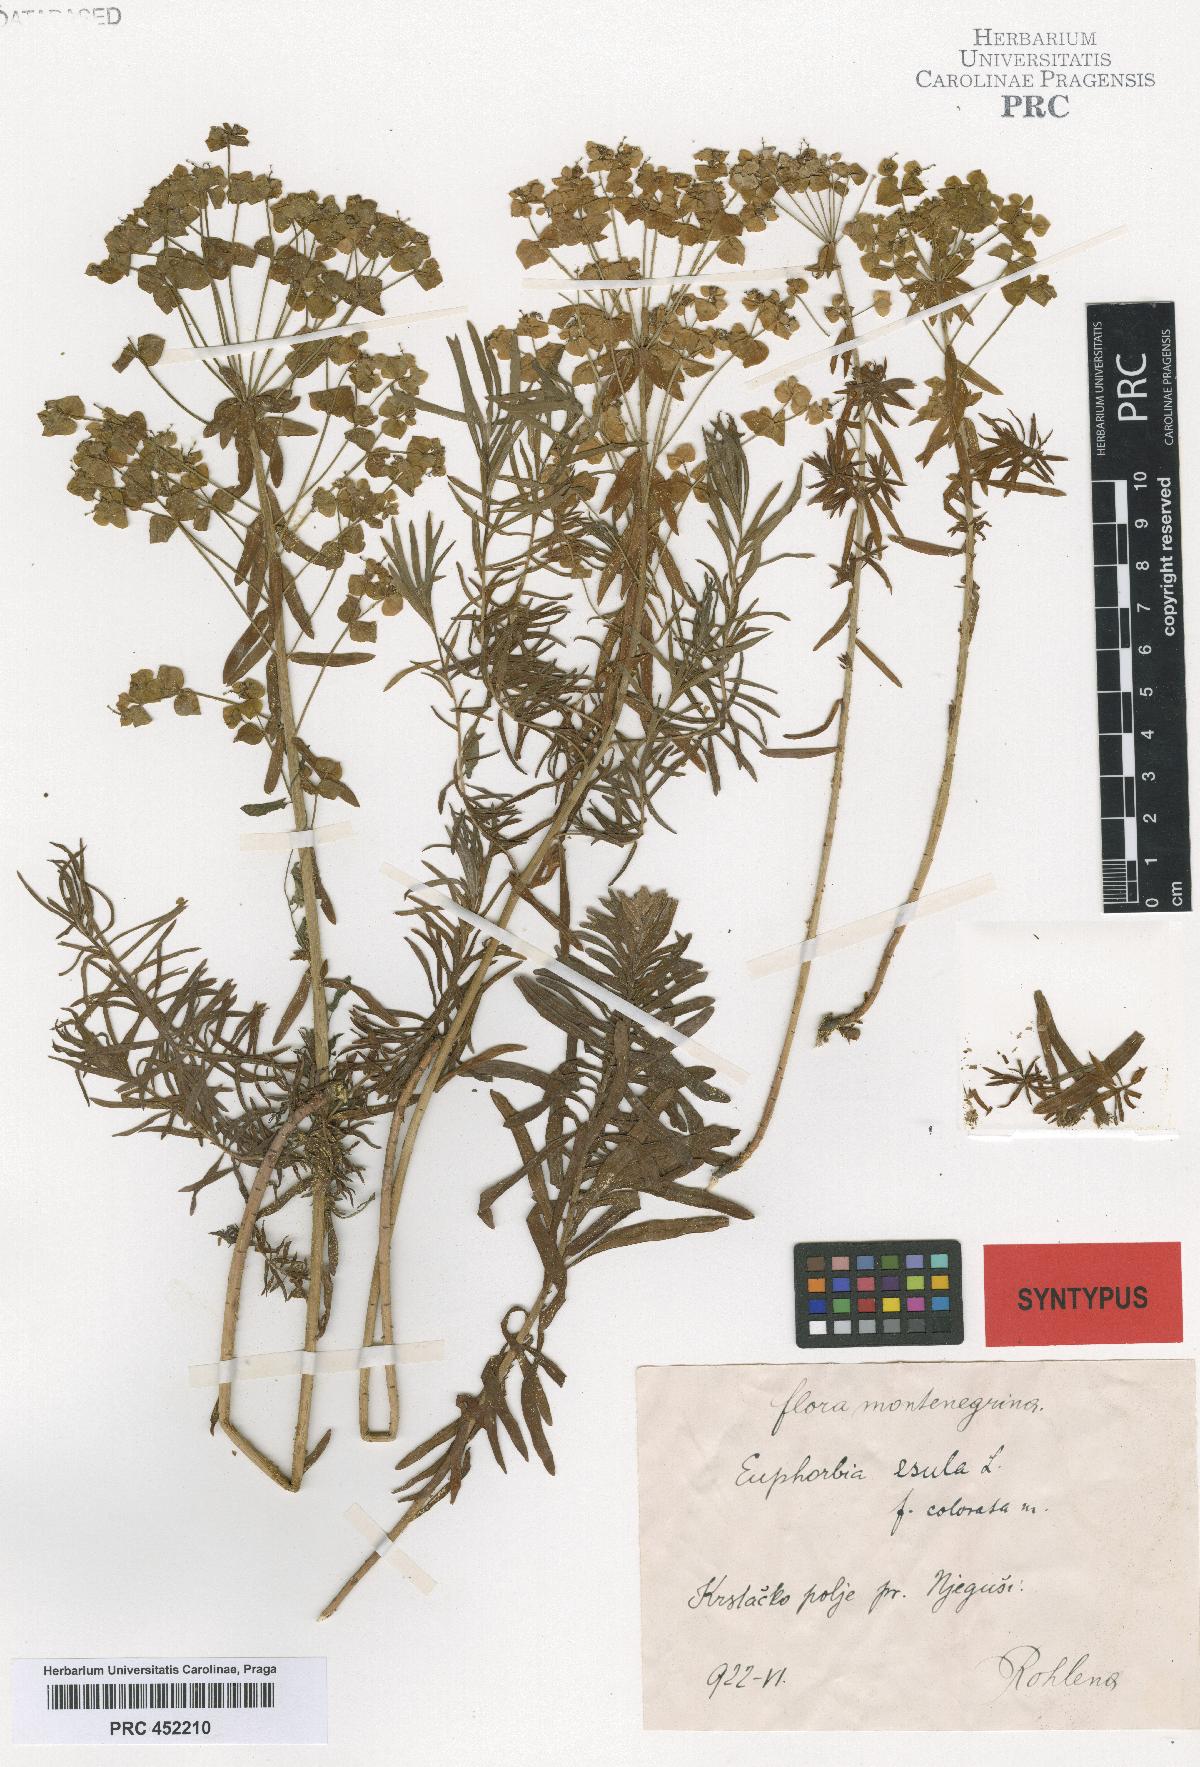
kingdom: Plantae
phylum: Tracheophyta
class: Magnoliopsida
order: Malpighiales
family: Euphorbiaceae
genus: Euphorbia
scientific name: Euphorbia esula
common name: Leafy spurge
